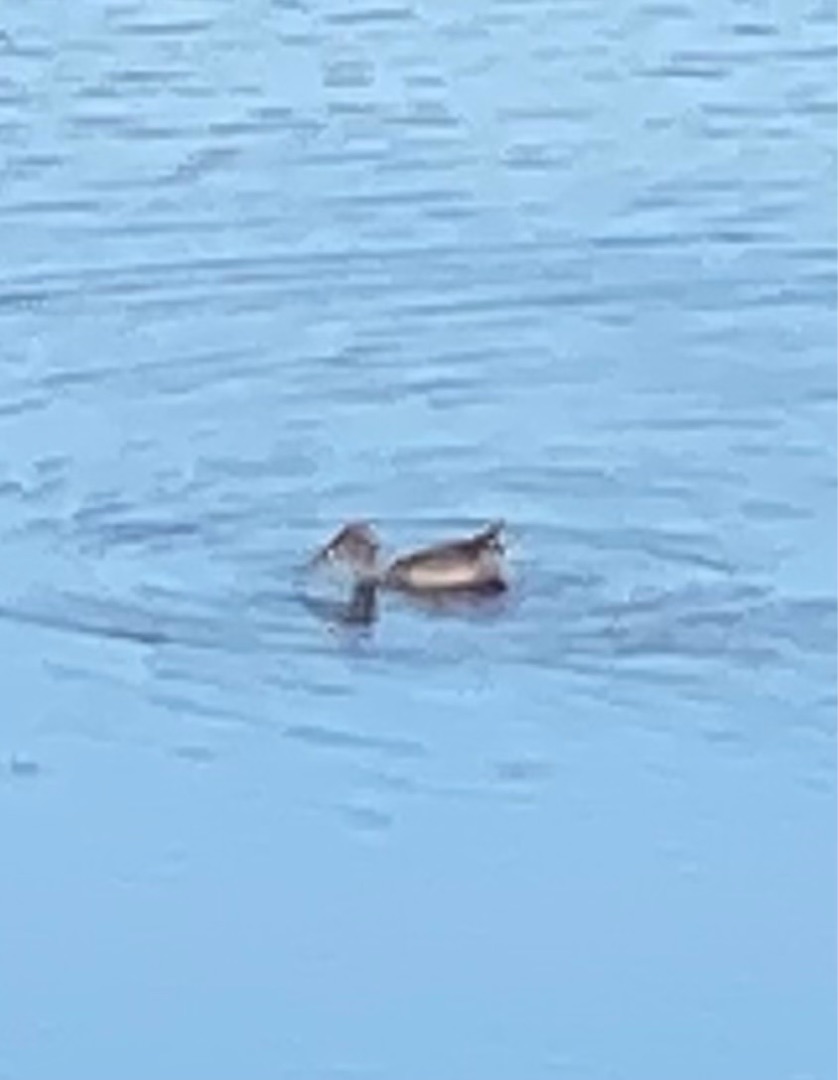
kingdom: Animalia
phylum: Chordata
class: Aves
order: Anseriformes
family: Anatidae
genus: Spatula
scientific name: Spatula clypeata
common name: Skeand
